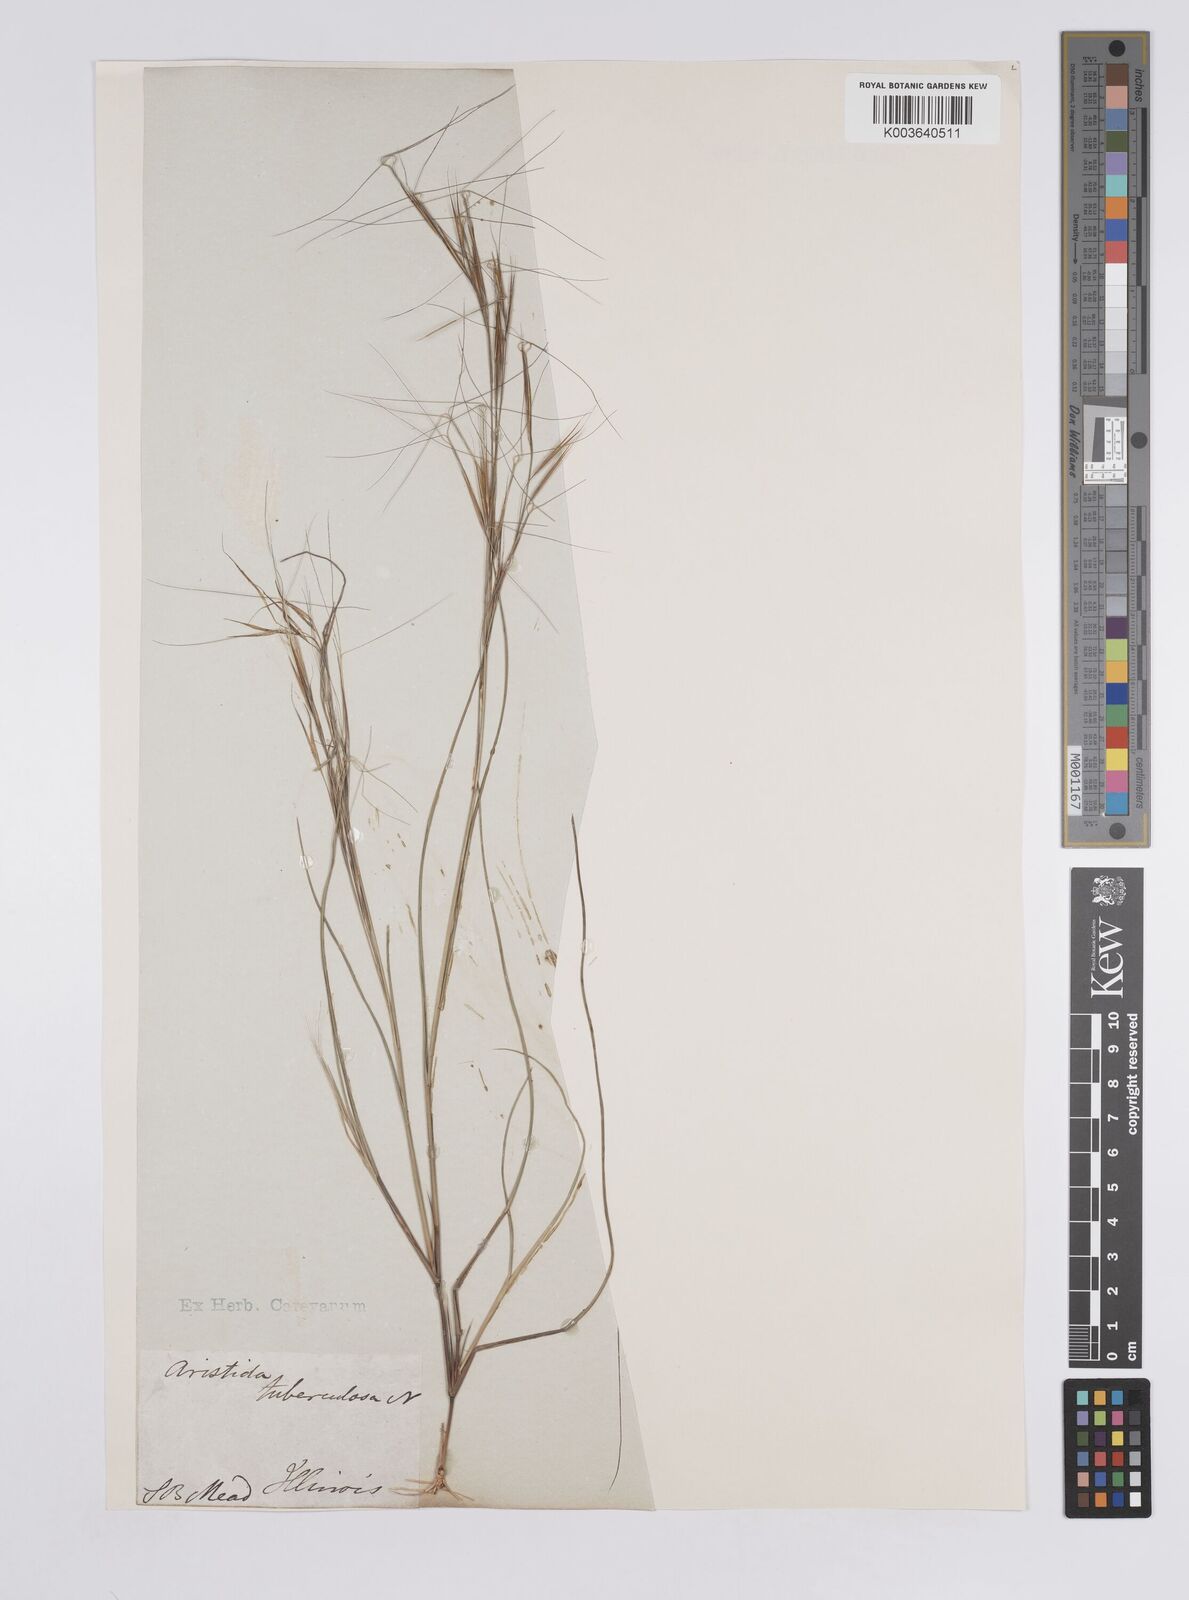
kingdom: Plantae
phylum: Tracheophyta
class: Liliopsida
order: Poales
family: Poaceae
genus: Aristida
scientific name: Aristida tuberculosa
